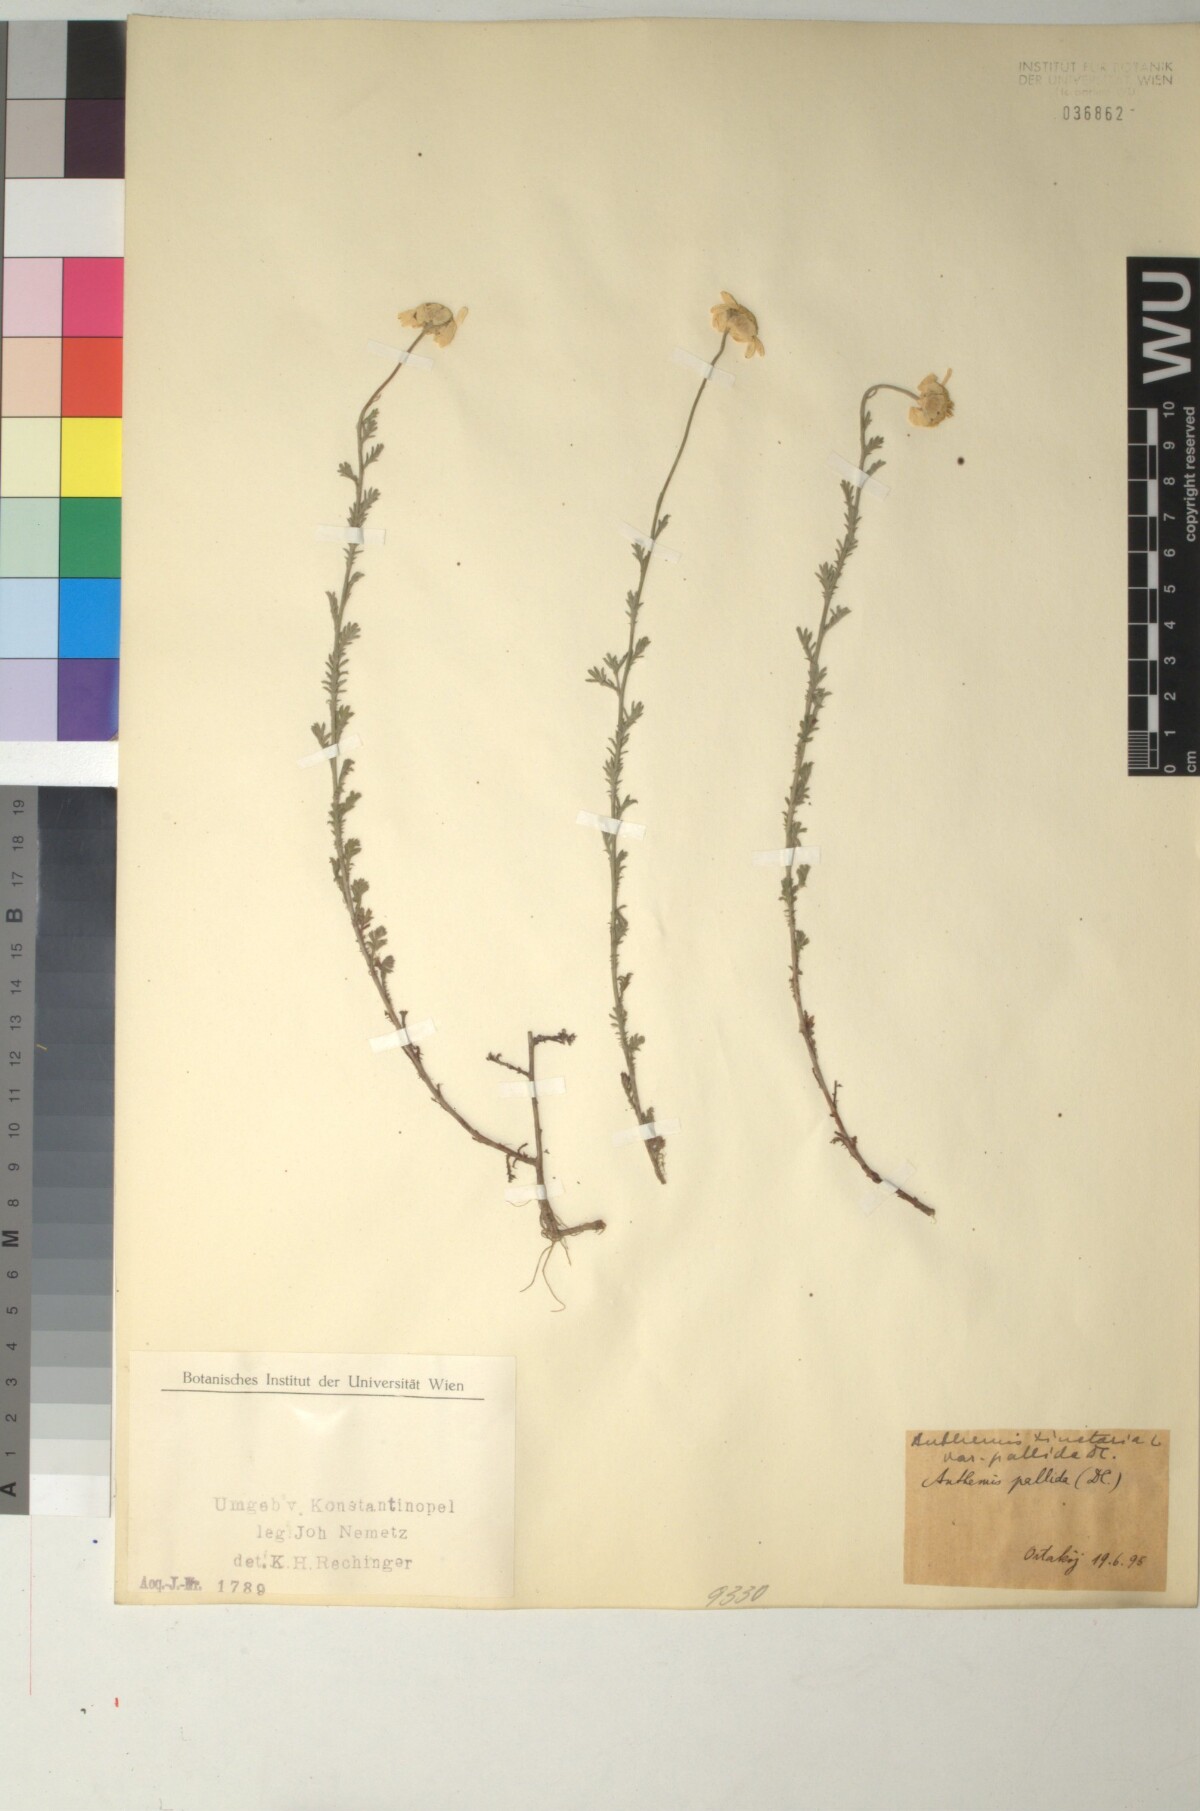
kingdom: Plantae
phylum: Tracheophyta
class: Magnoliopsida
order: Asterales
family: Asteraceae
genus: Cota
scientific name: Cota tinctoria
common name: Golden chamomile
